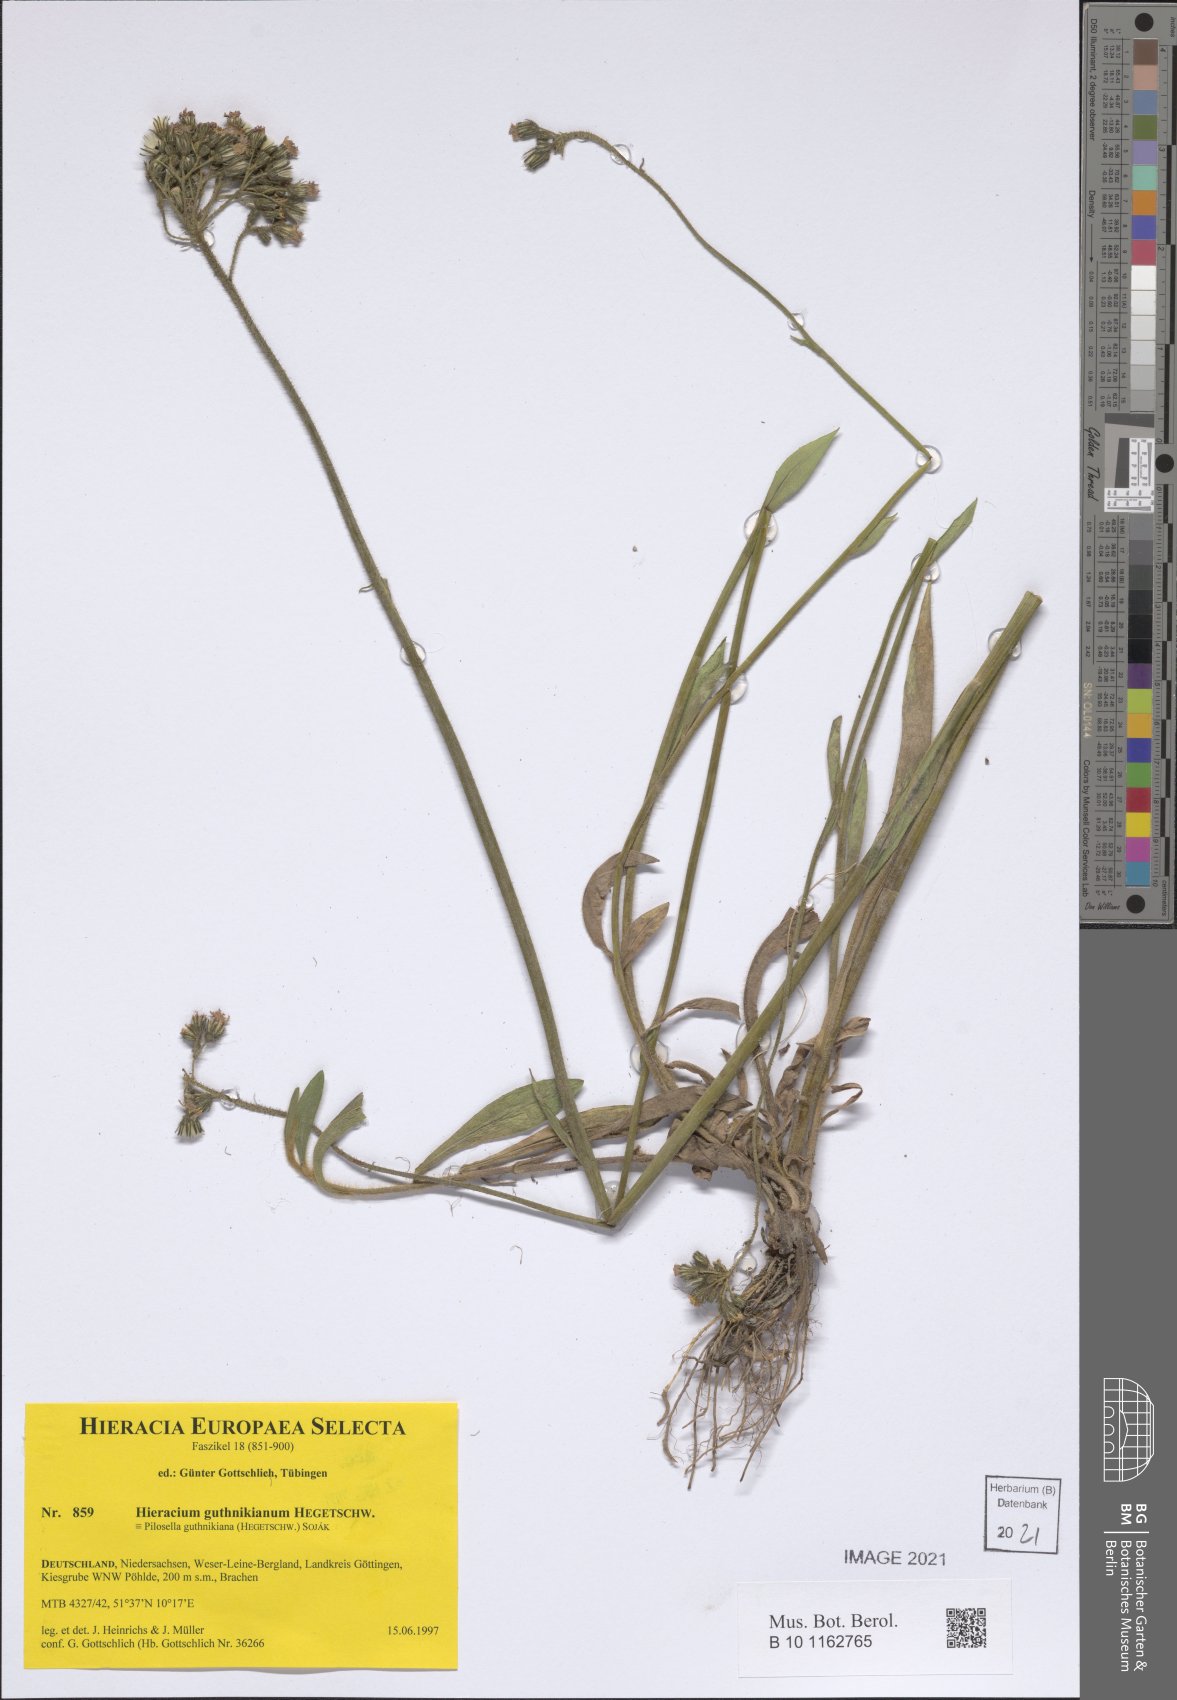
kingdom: Plantae
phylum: Tracheophyta
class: Magnoliopsida
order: Asterales
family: Asteraceae
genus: Pilosella
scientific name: Pilosella guthnikiana
